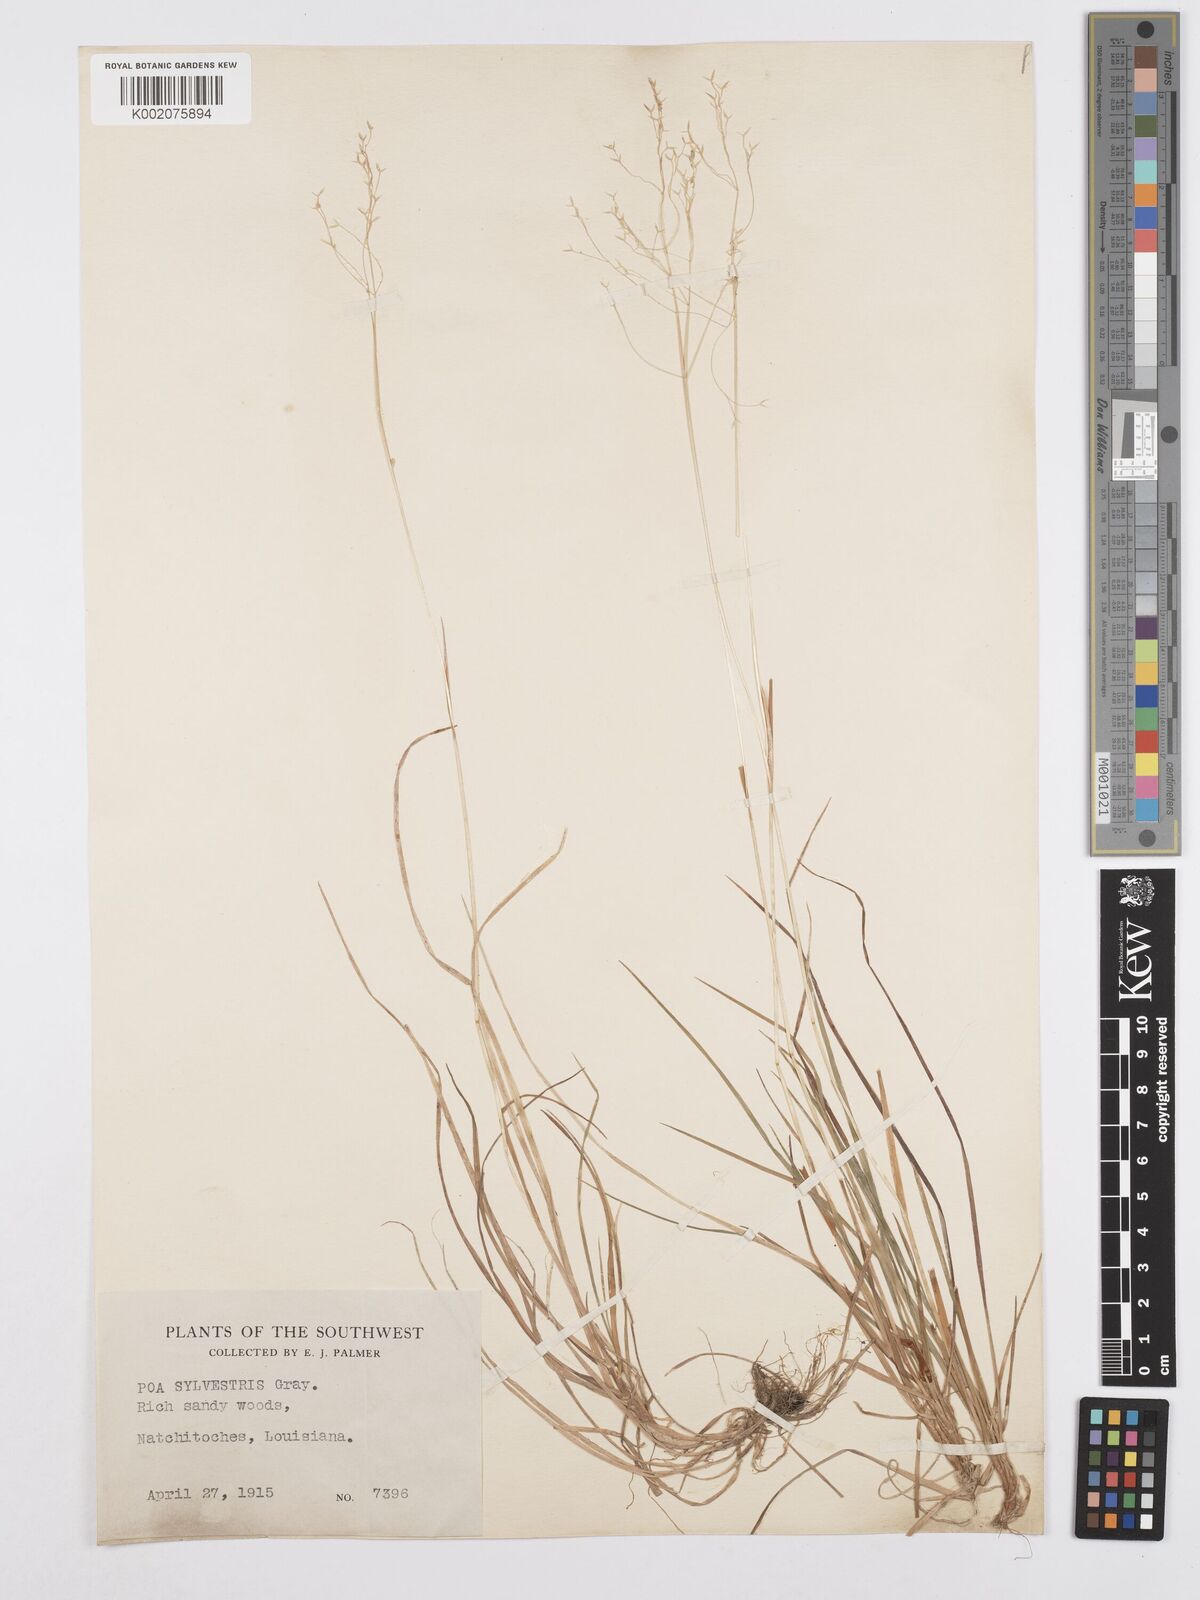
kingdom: Plantae
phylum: Tracheophyta
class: Liliopsida
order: Poales
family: Poaceae
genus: Poa
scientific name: Poa sylvestris
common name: North american woodland bluegrass
